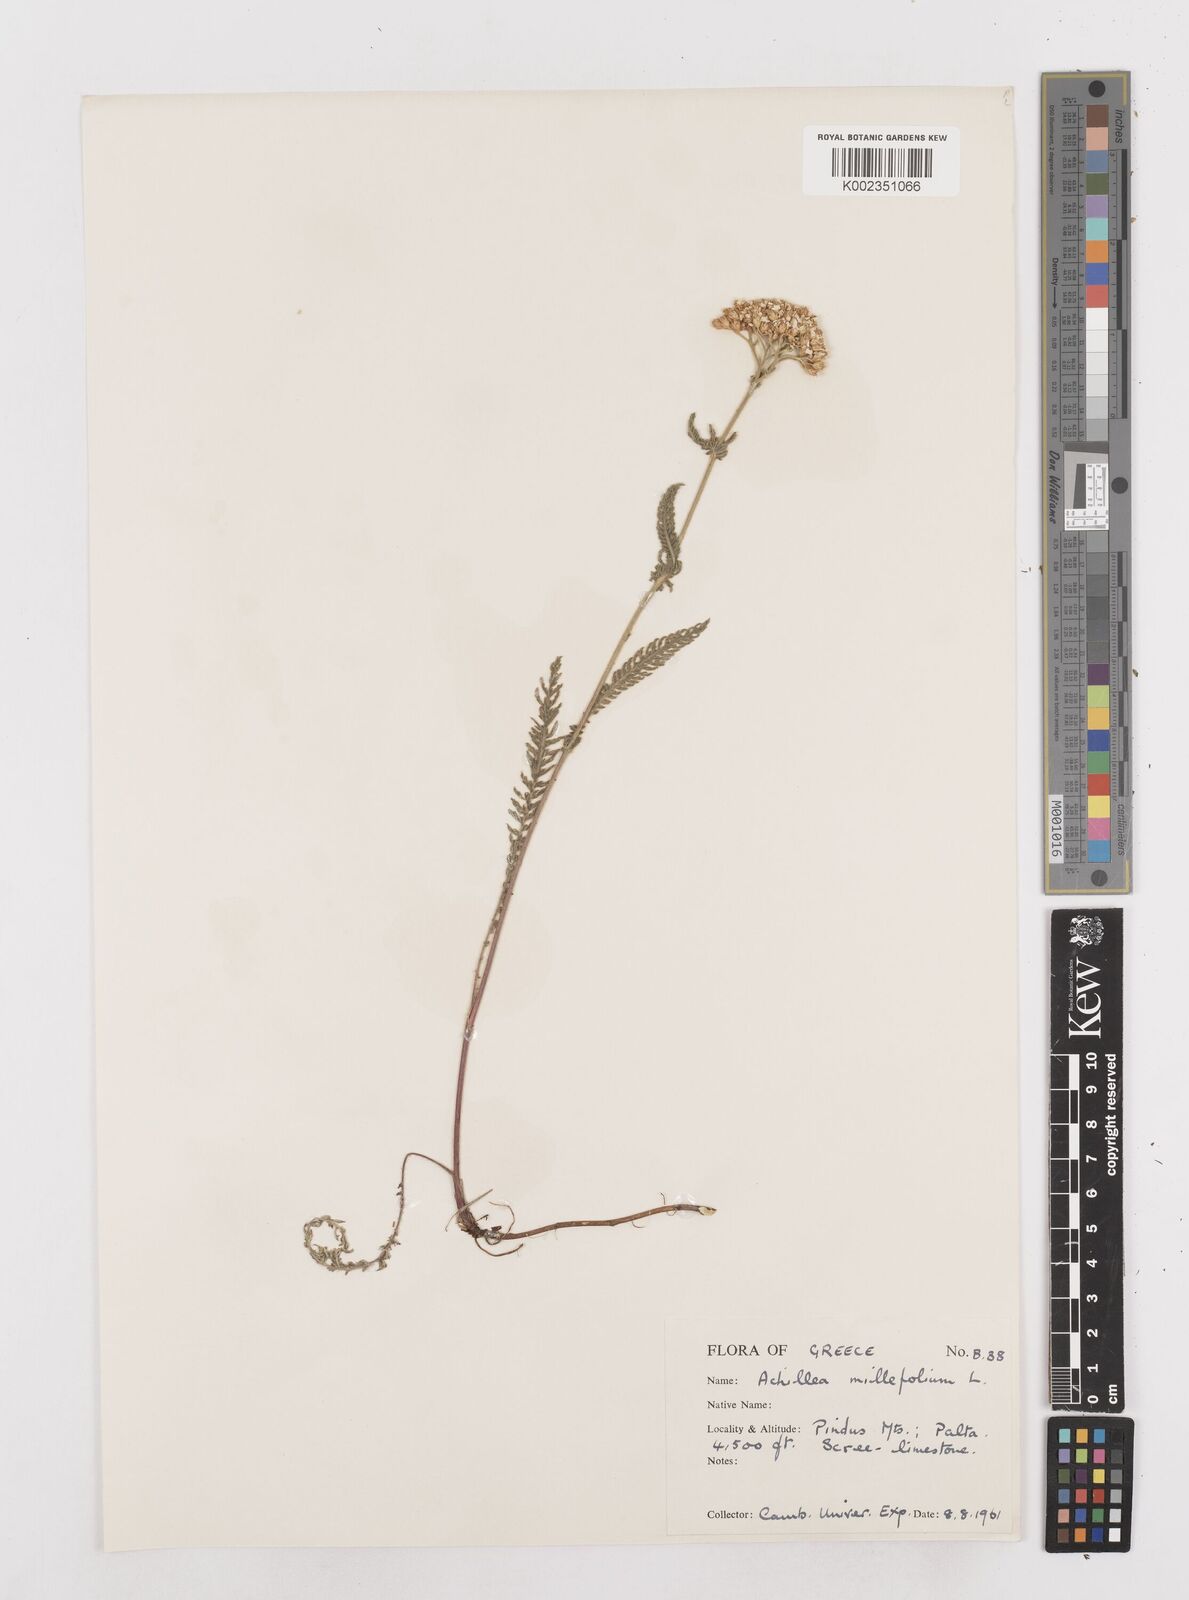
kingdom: Plantae
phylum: Tracheophyta
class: Magnoliopsida
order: Asterales
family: Asteraceae
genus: Achillea
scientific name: Achillea millefolium
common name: Yarrow
